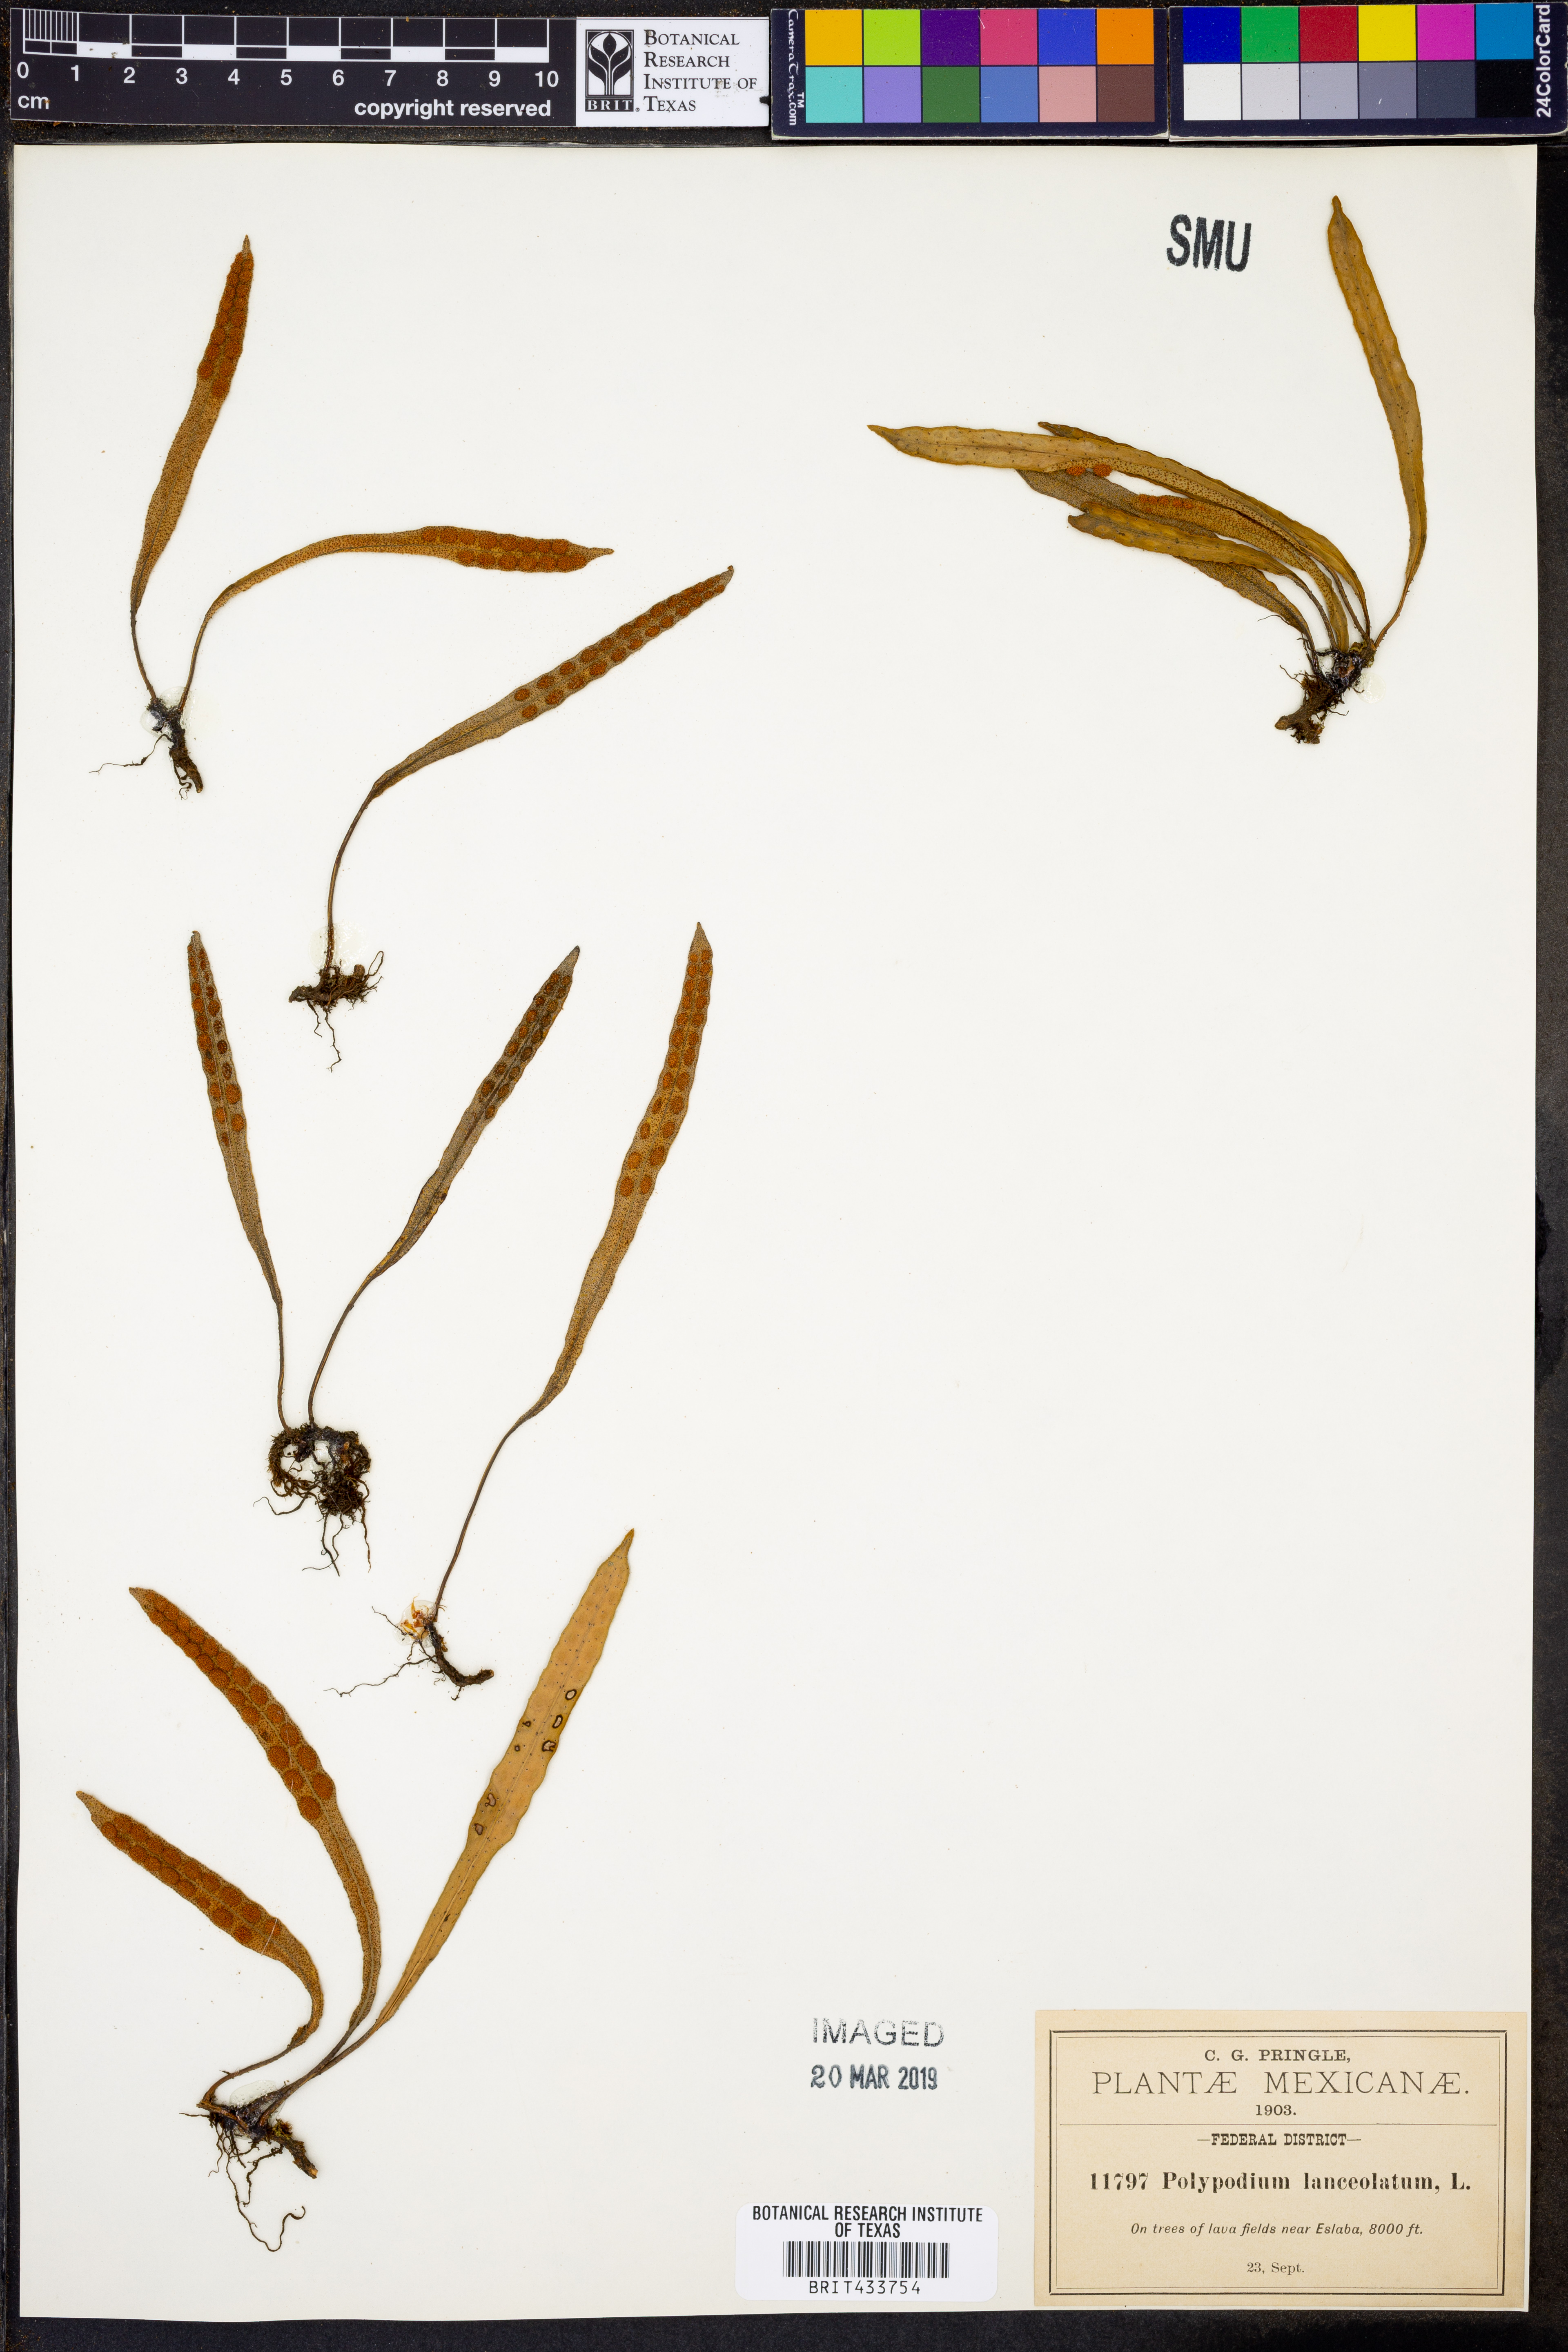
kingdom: Plantae
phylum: Tracheophyta
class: Polypodiopsida
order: Polypodiales
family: Polypodiaceae
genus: Pleopeltis
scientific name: Pleopeltis macrocarpa
